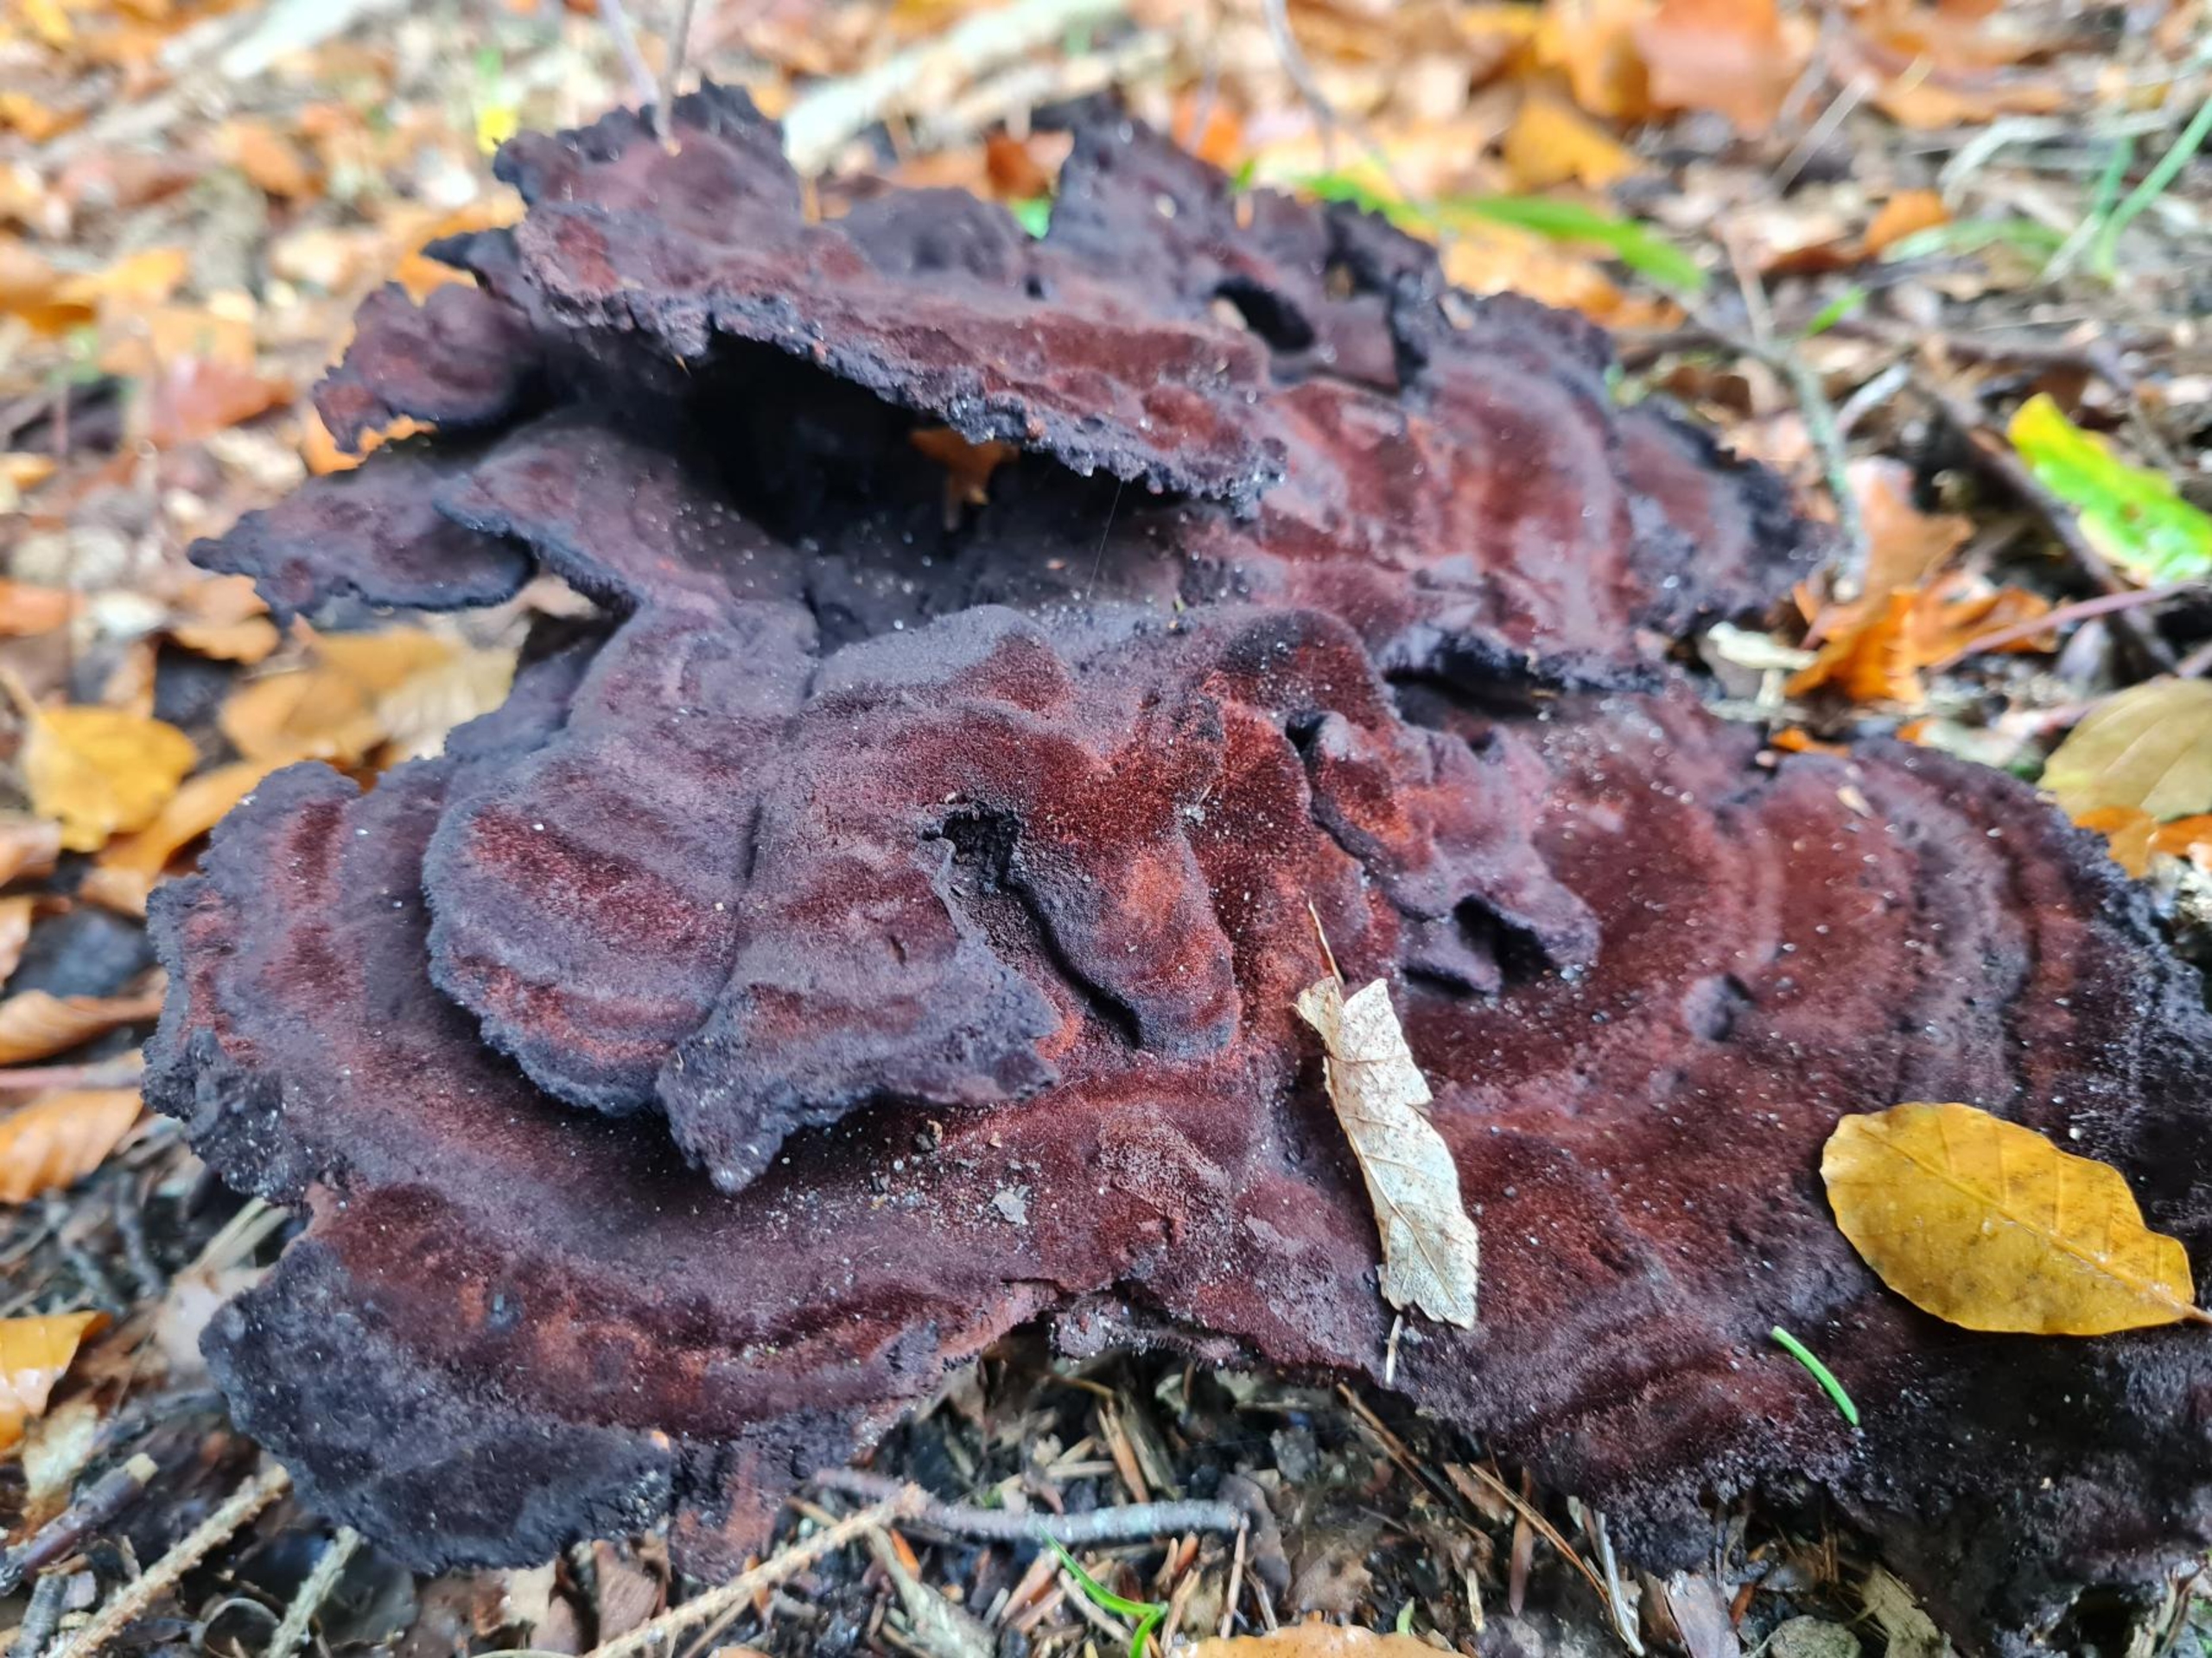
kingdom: Fungi
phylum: Basidiomycota
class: Agaricomycetes
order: Polyporales
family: Laetiporaceae
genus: Phaeolus
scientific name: Phaeolus schweinitzii
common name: Brunporesvamp
